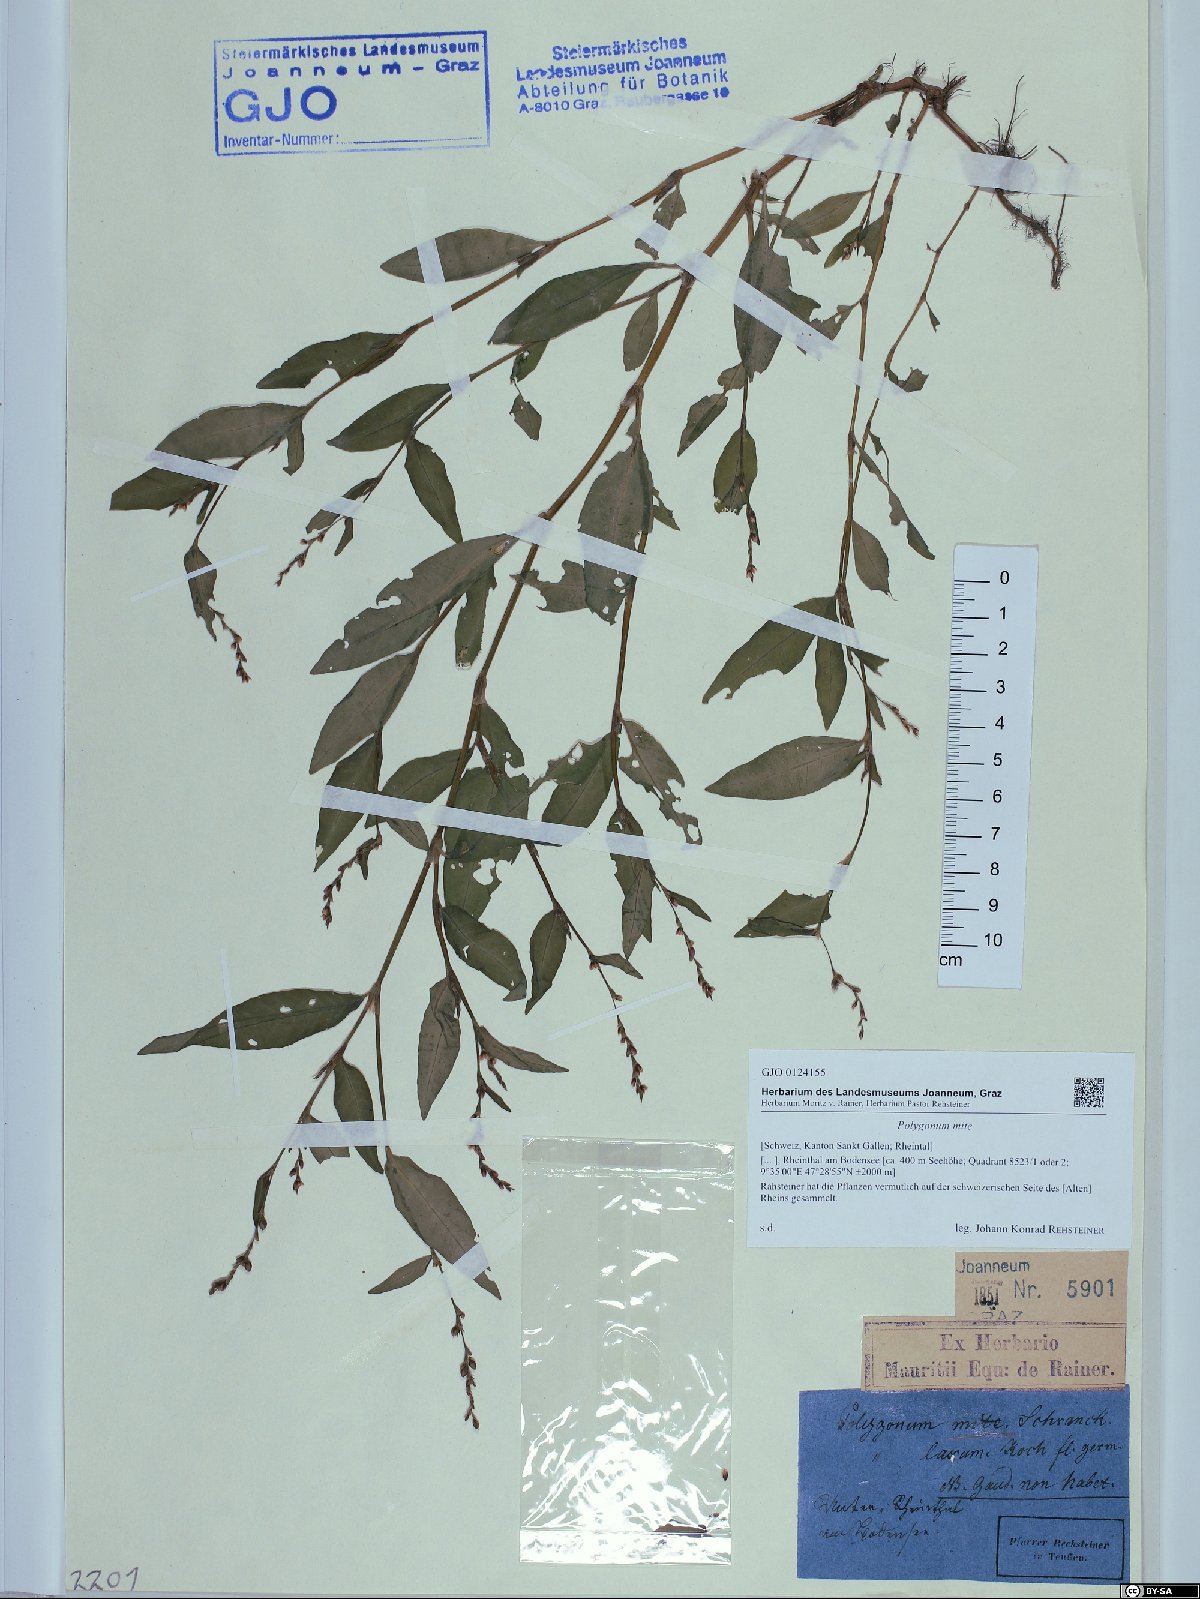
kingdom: Plantae
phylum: Tracheophyta
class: Magnoliopsida
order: Caryophyllales
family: Polygonaceae
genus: Persicaria
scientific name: Persicaria mitis
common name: Tasteless water-pepper
